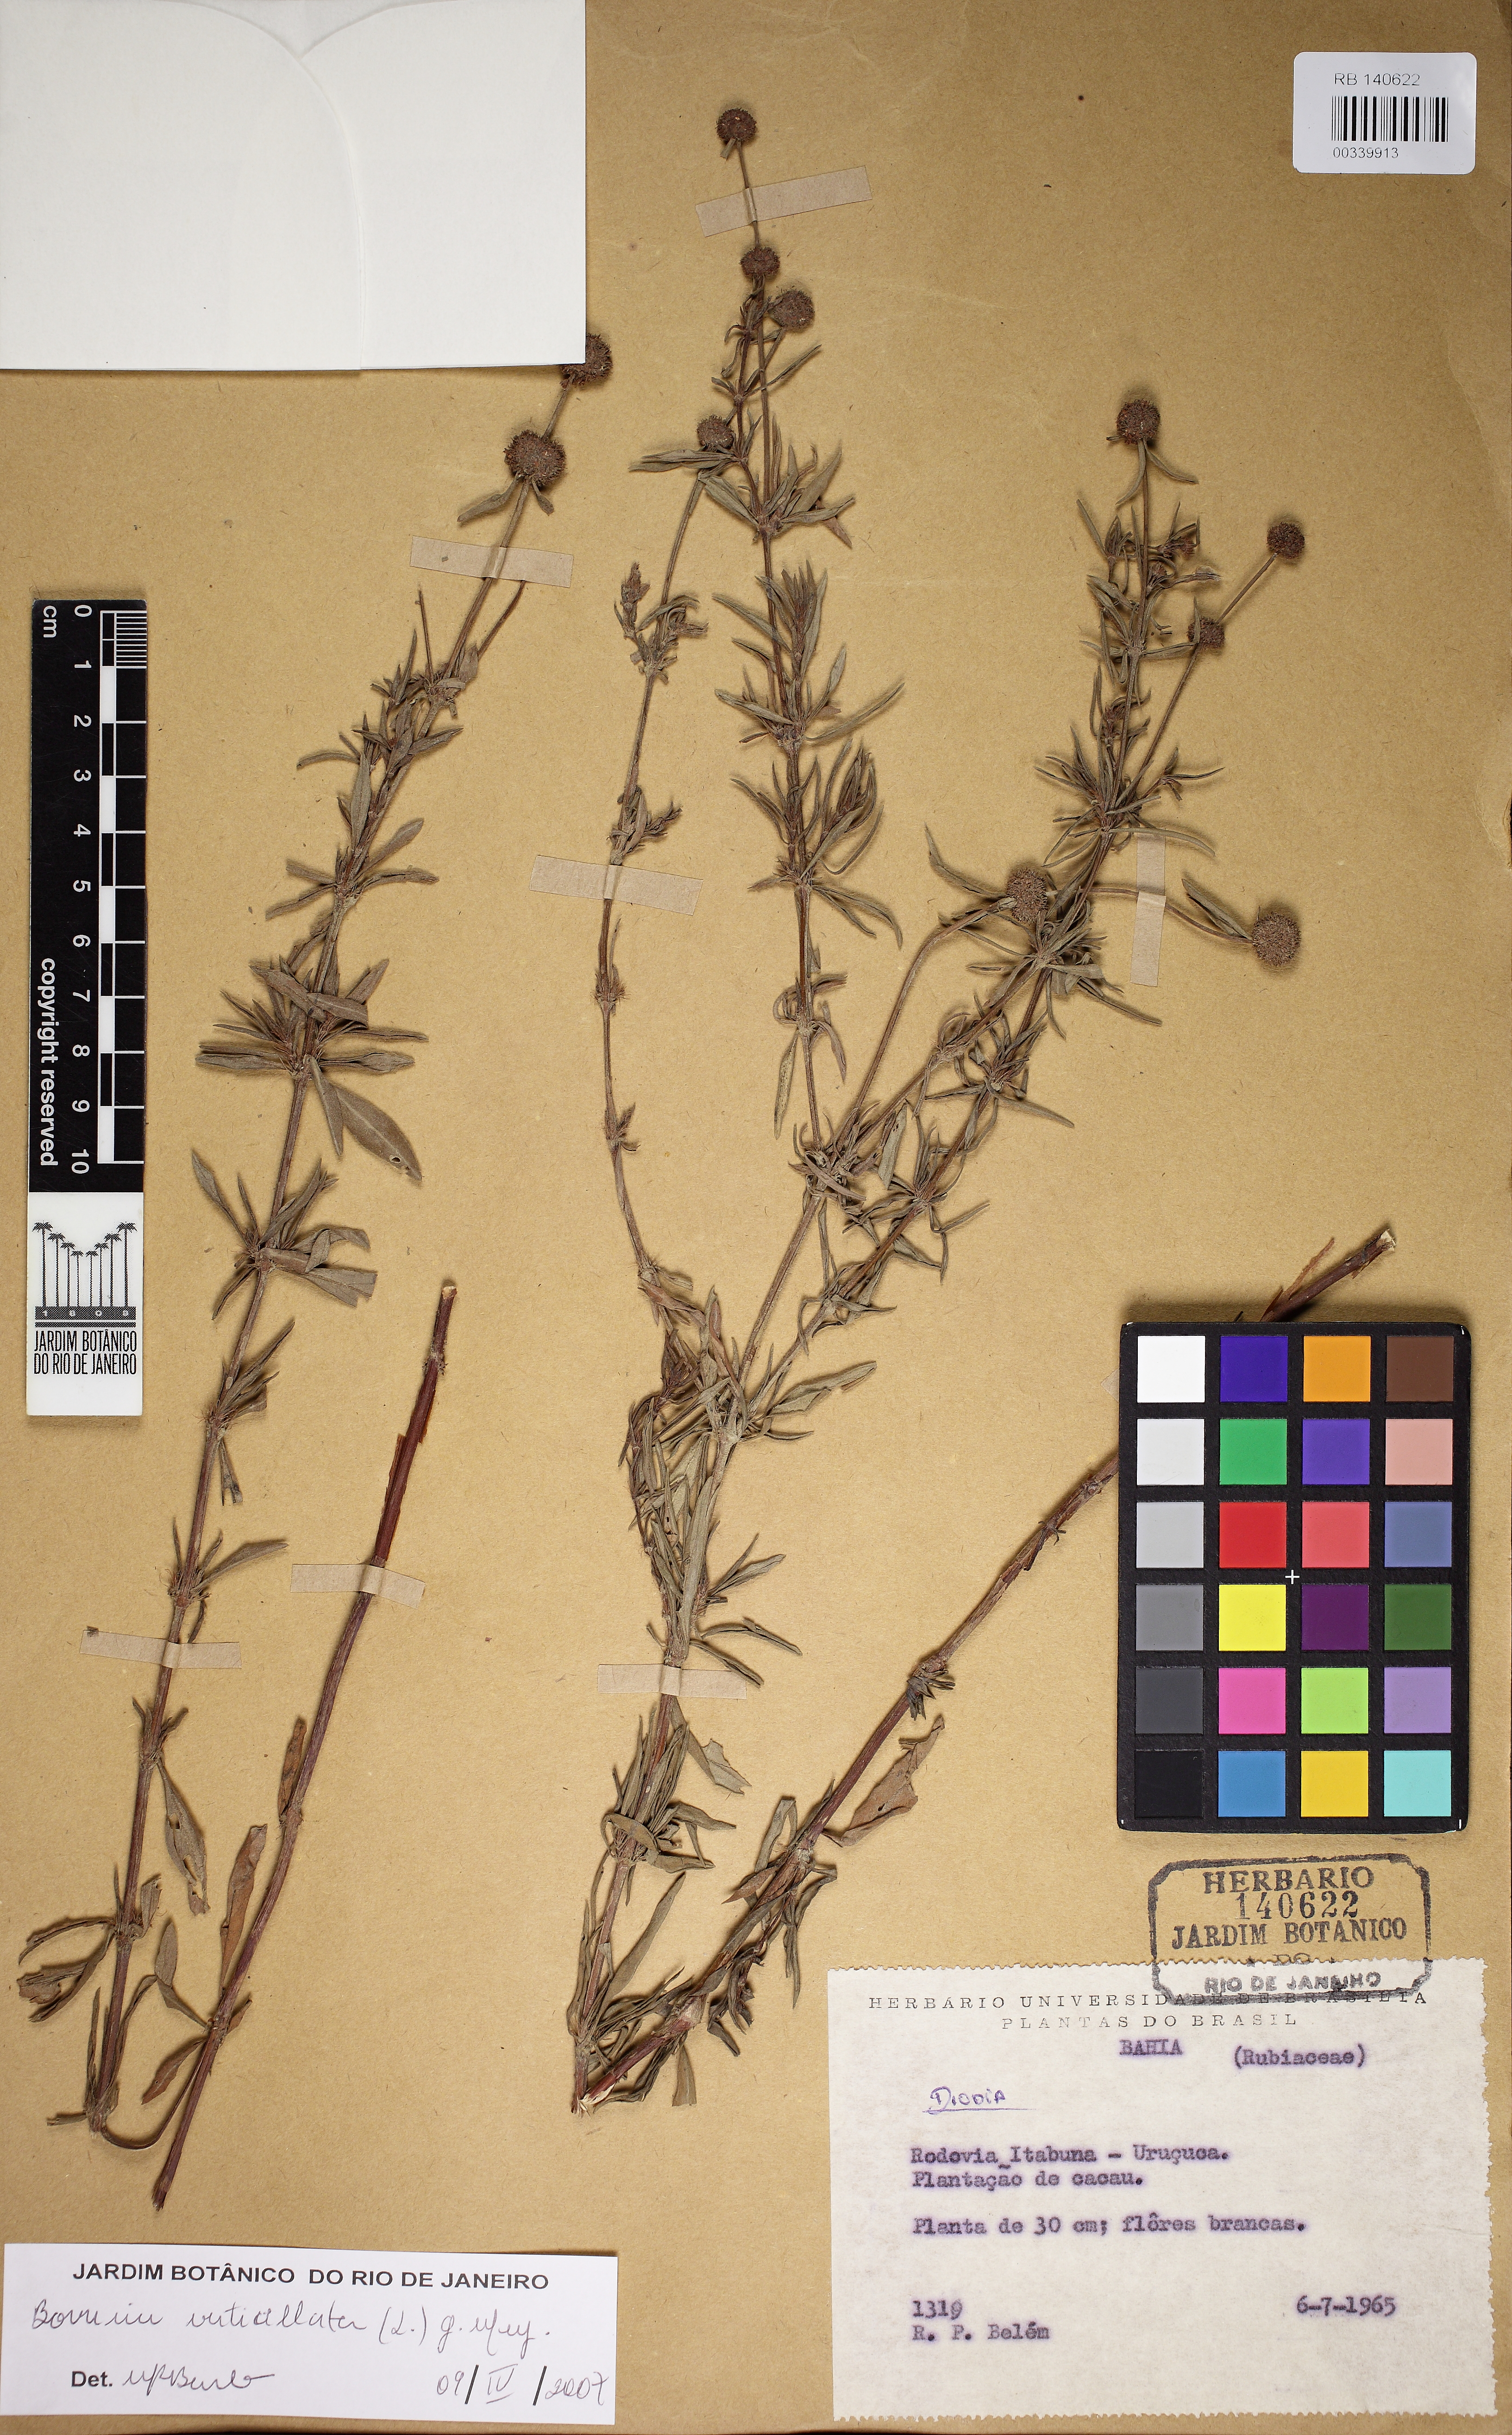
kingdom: Plantae
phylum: Tracheophyta
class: Magnoliopsida
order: Gentianales
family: Rubiaceae
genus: Spermacoce
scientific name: Spermacoce verticillata
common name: Shrubby false buttonweed
